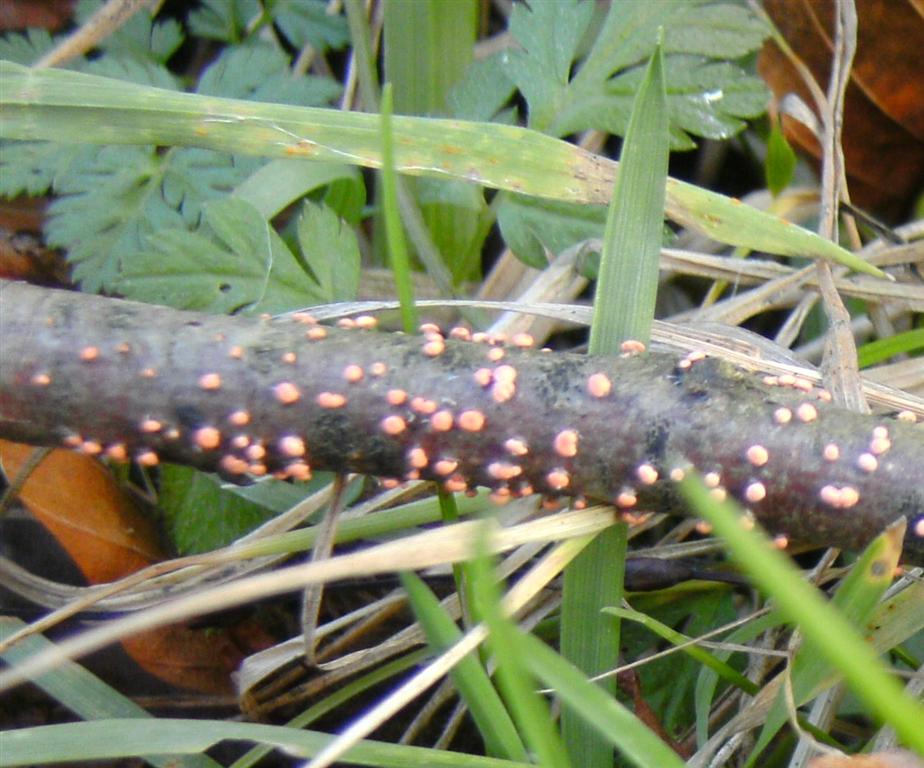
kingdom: Fungi
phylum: Ascomycota
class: Sordariomycetes
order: Hypocreales
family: Nectriaceae
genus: Nectria
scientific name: Nectria cinnabarina
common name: almindelig cinnobersvamp
